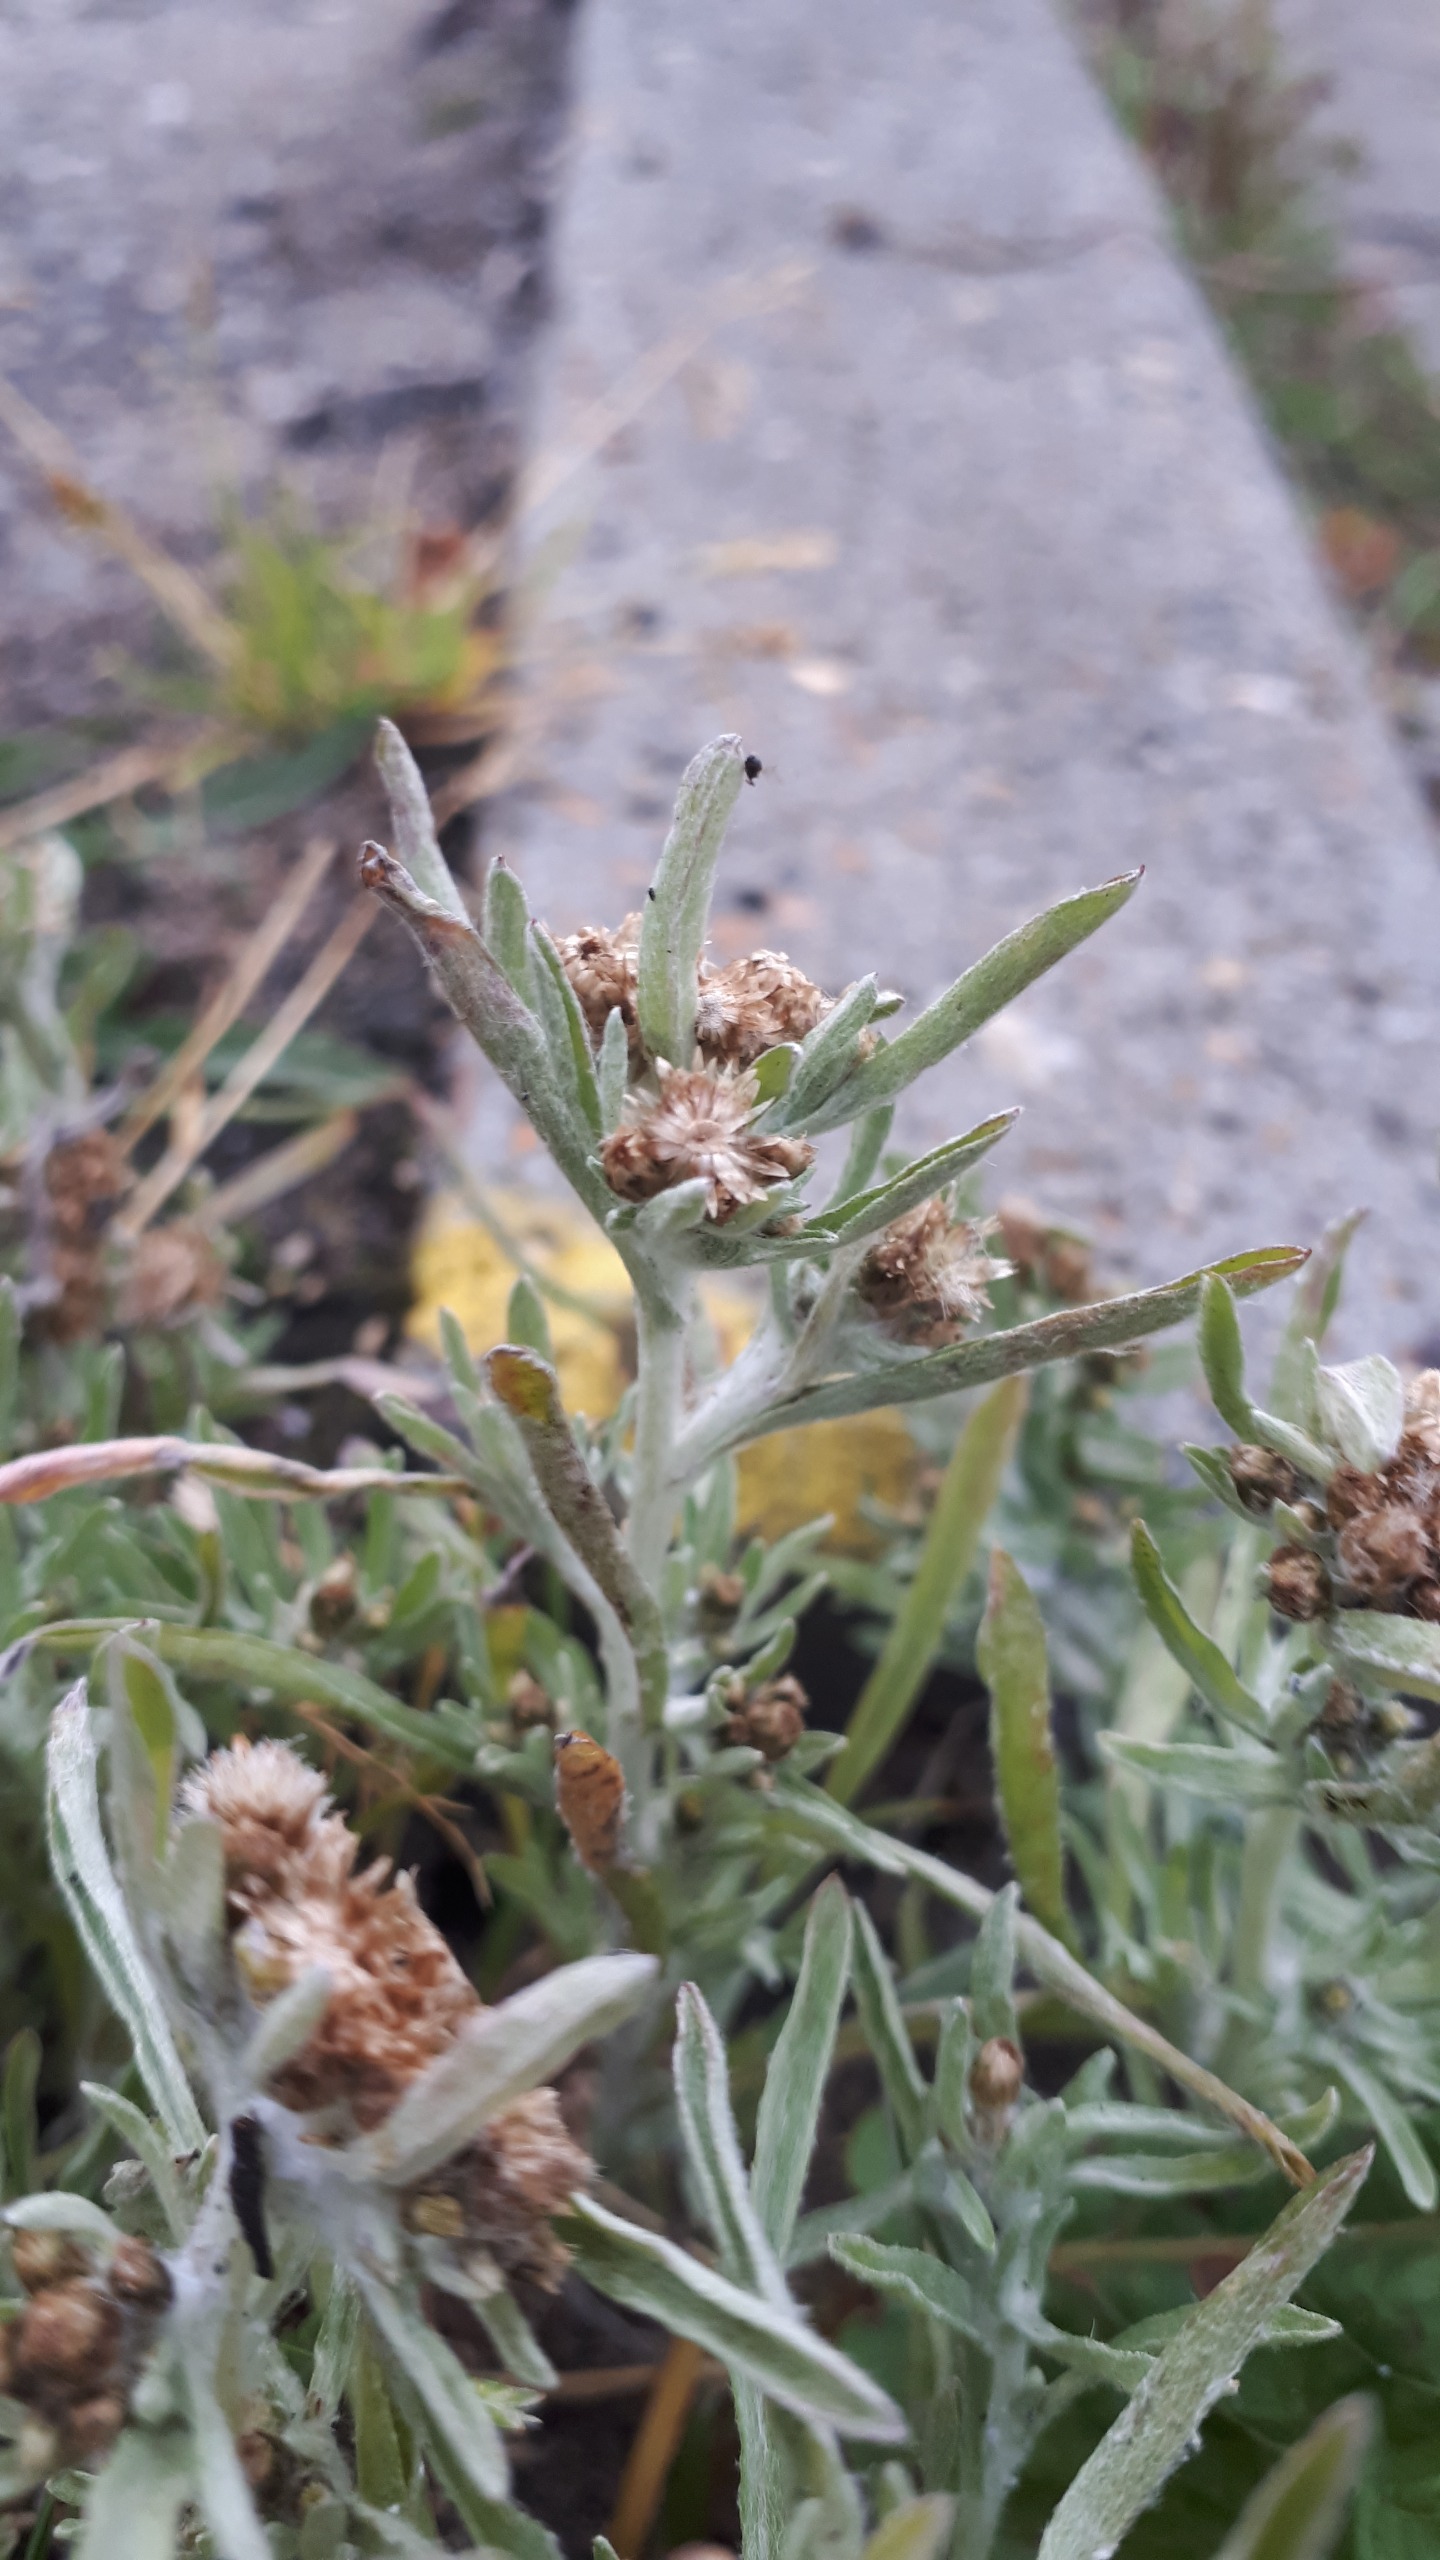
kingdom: Plantae
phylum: Tracheophyta
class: Magnoliopsida
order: Asterales
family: Asteraceae
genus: Gnaphalium
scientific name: Gnaphalium uliginosum
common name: Sump-evighedsblomst
